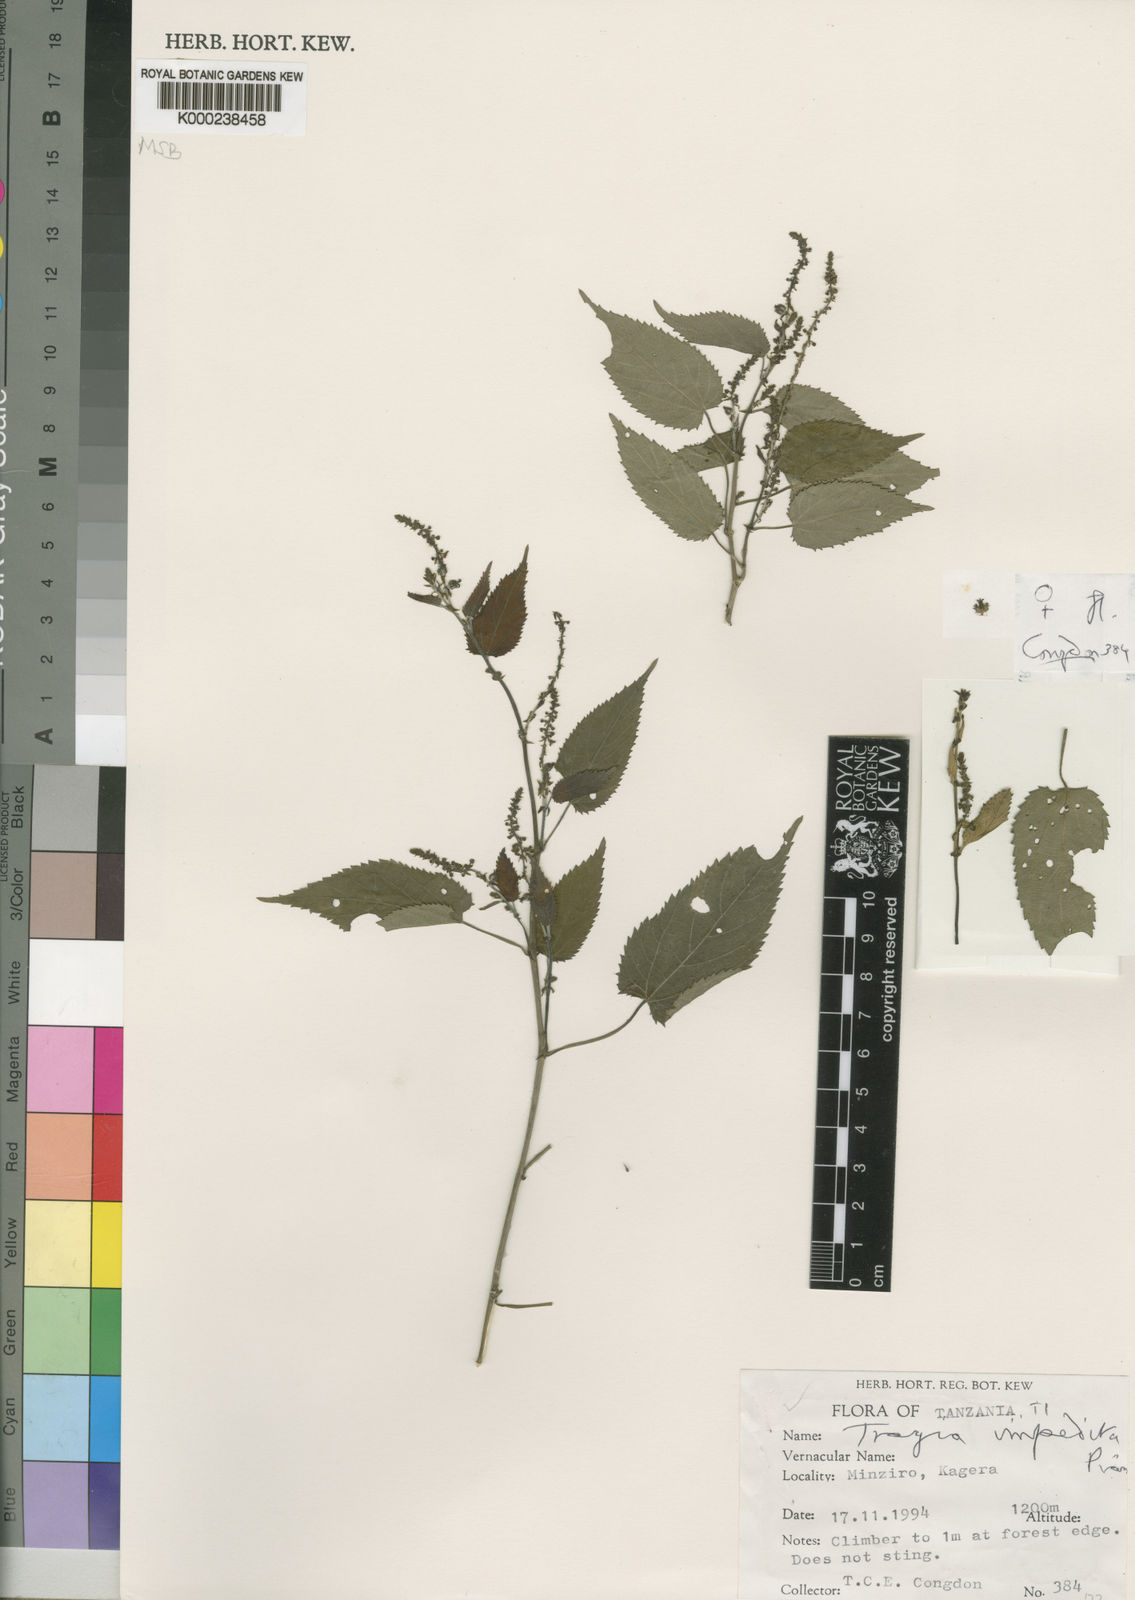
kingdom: Plantae
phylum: Tracheophyta
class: Magnoliopsida
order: Malpighiales
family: Euphorbiaceae
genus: Tragia
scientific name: Tragia impedita
